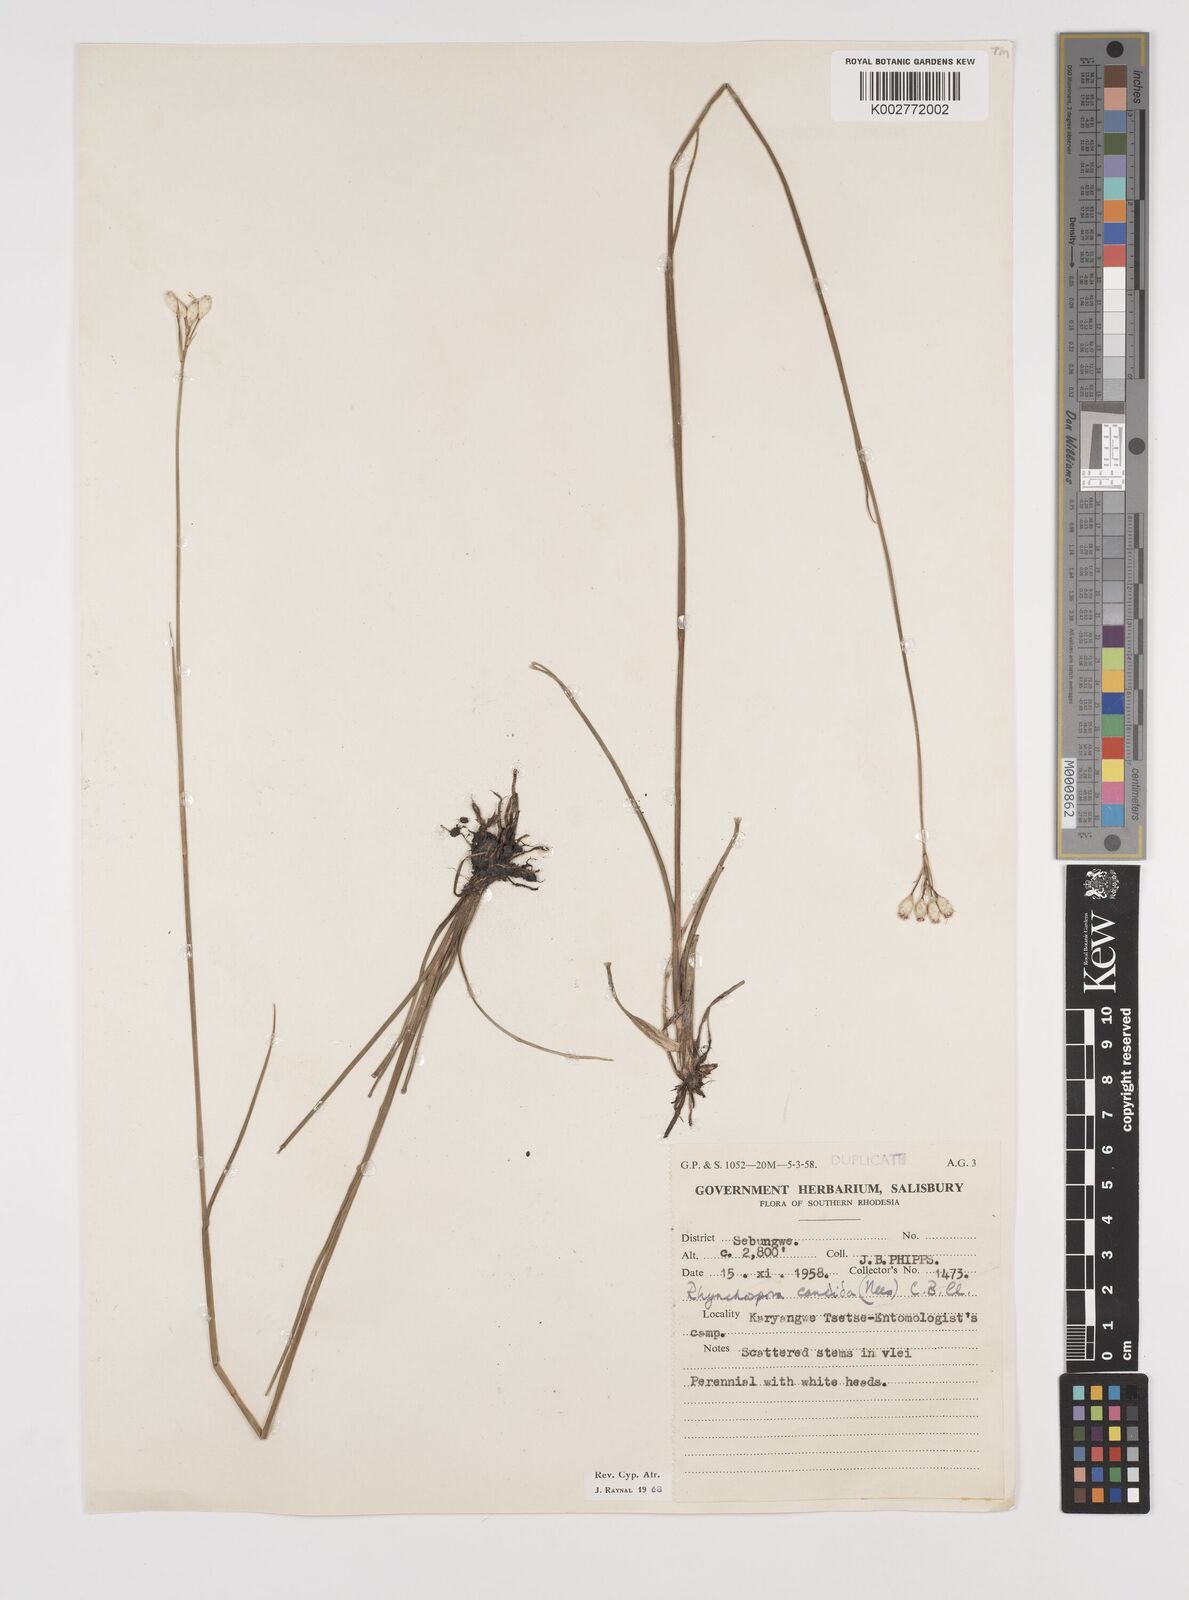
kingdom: Plantae
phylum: Tracheophyta
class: Liliopsida
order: Poales
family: Cyperaceae
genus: Rhynchospora
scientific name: Rhynchospora candida
